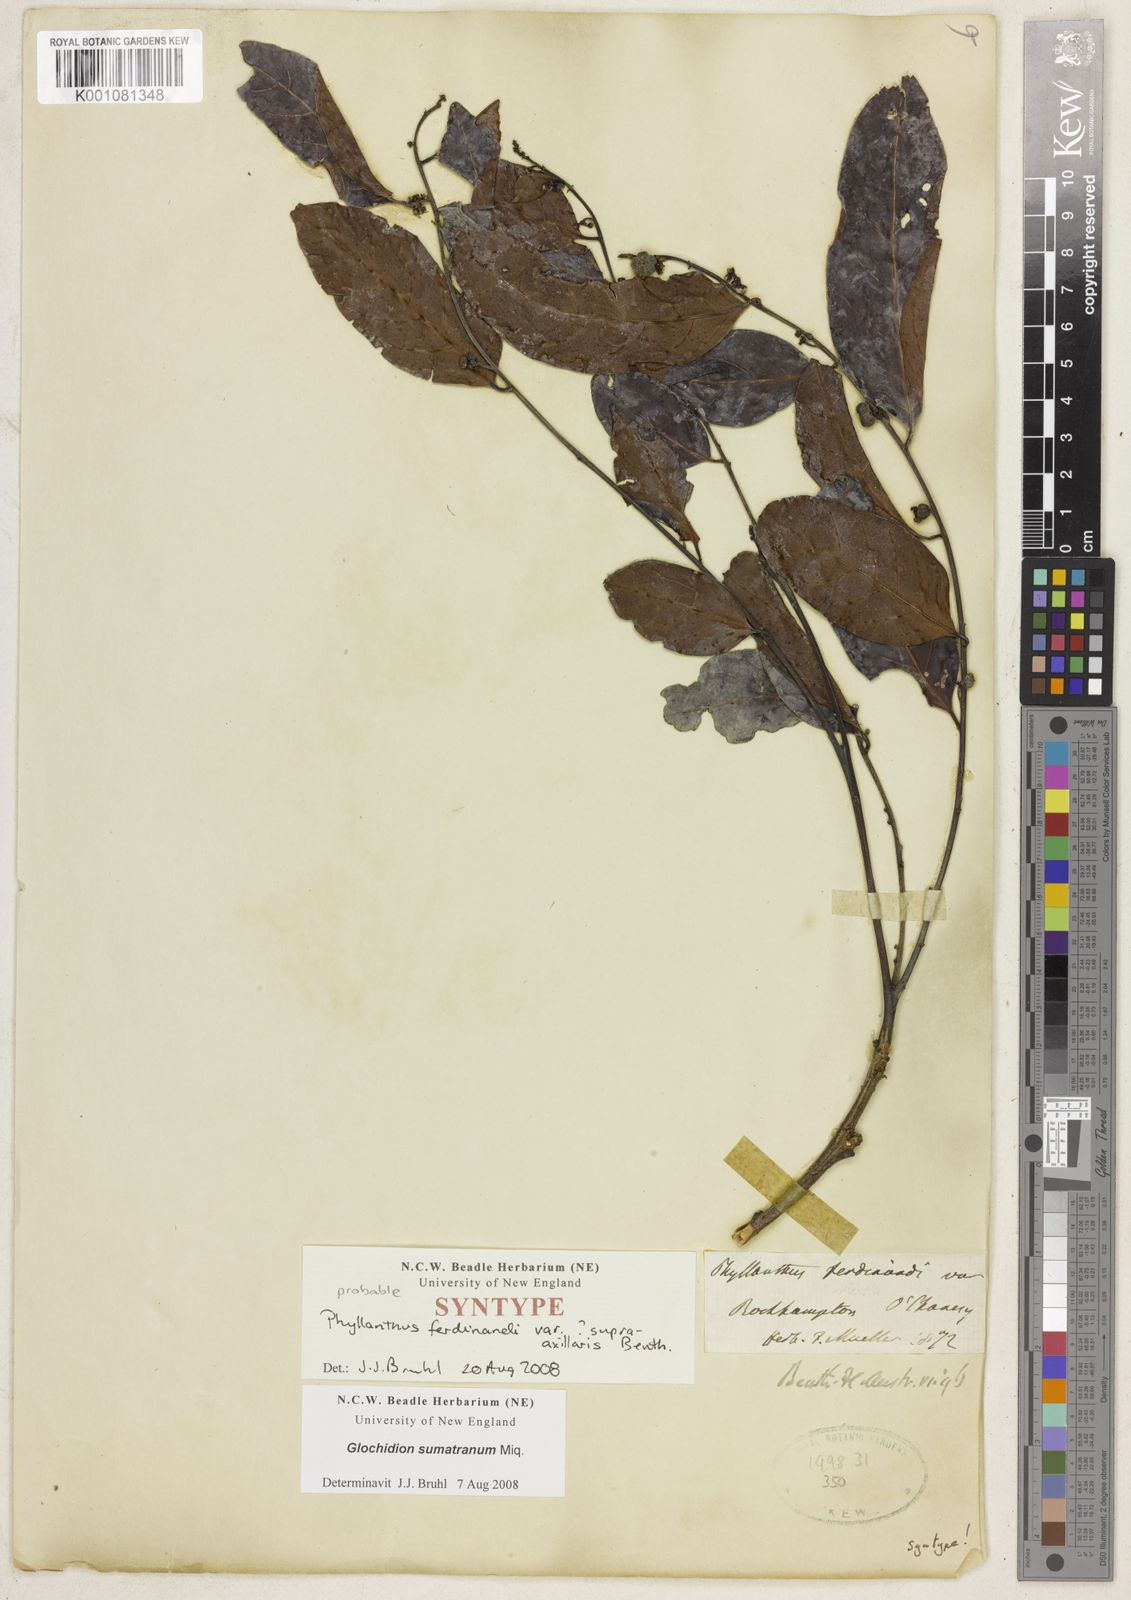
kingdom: Plantae
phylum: Tracheophyta
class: Magnoliopsida
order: Malpighiales
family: Phyllanthaceae
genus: Glochidion
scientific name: Glochidion zeylanicum
